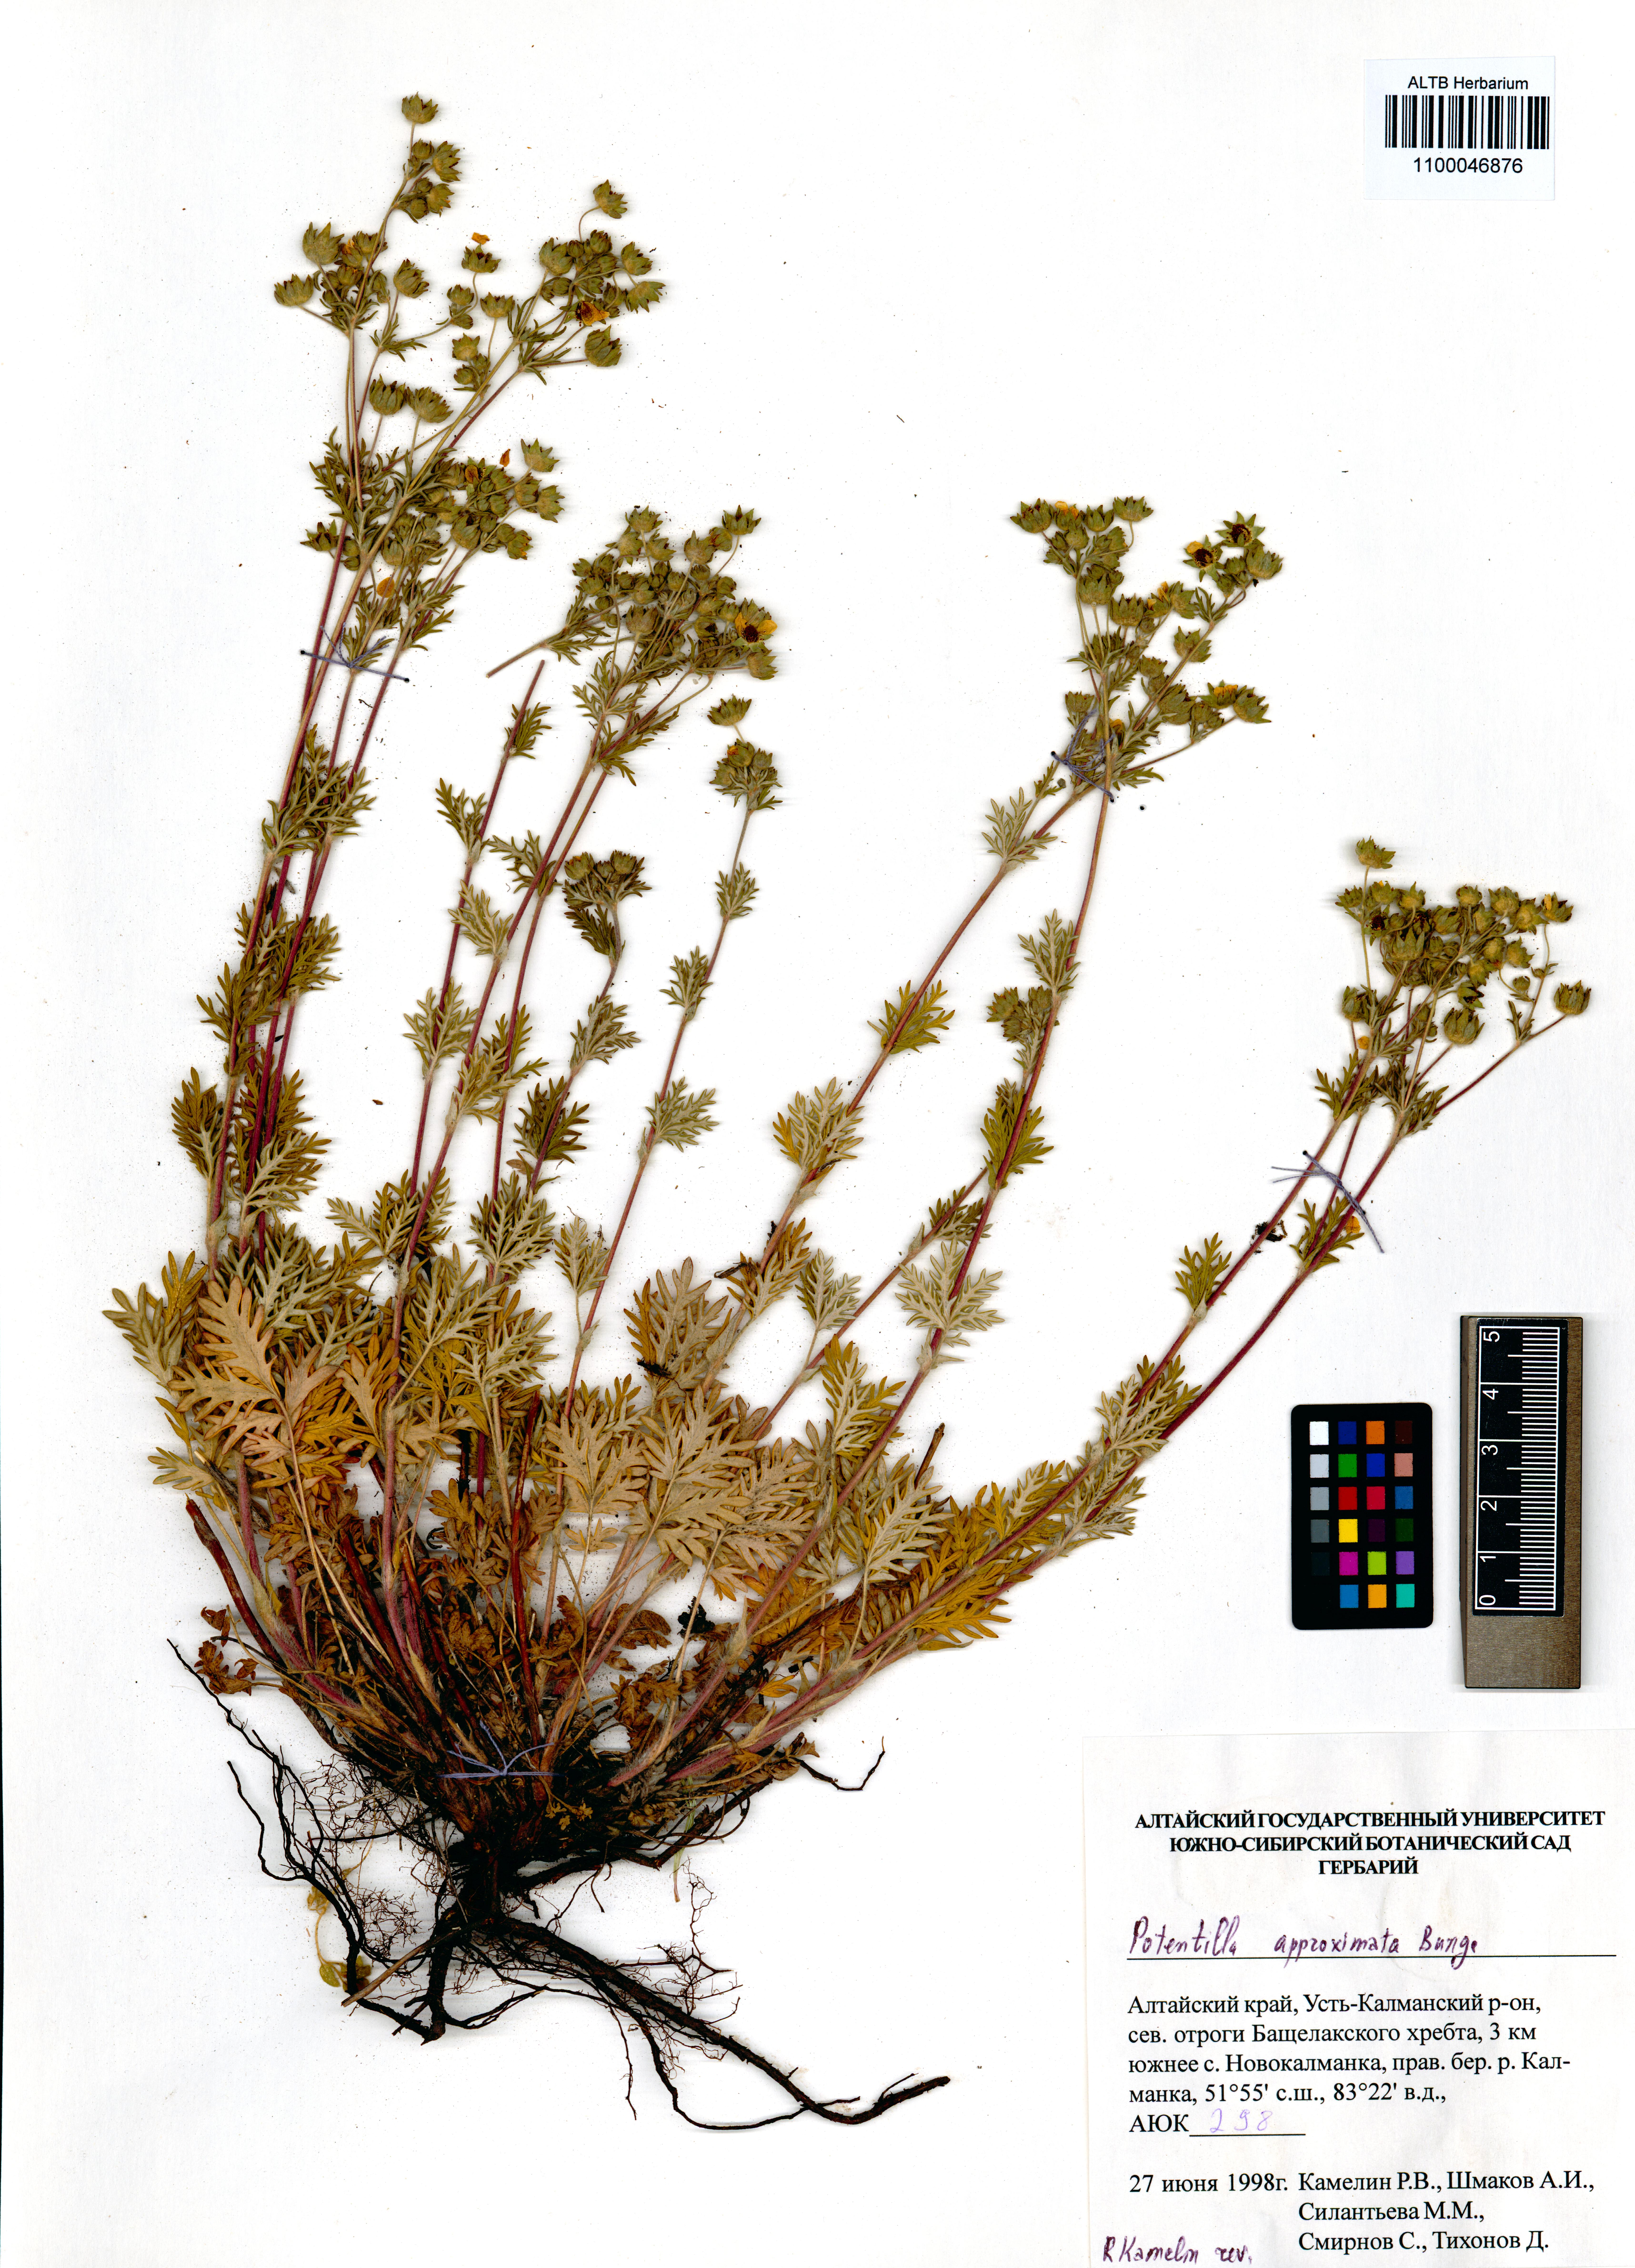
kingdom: Plantae
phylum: Tracheophyta
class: Magnoliopsida
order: Rosales
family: Rosaceae
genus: Potentilla
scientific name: Potentilla conferta
